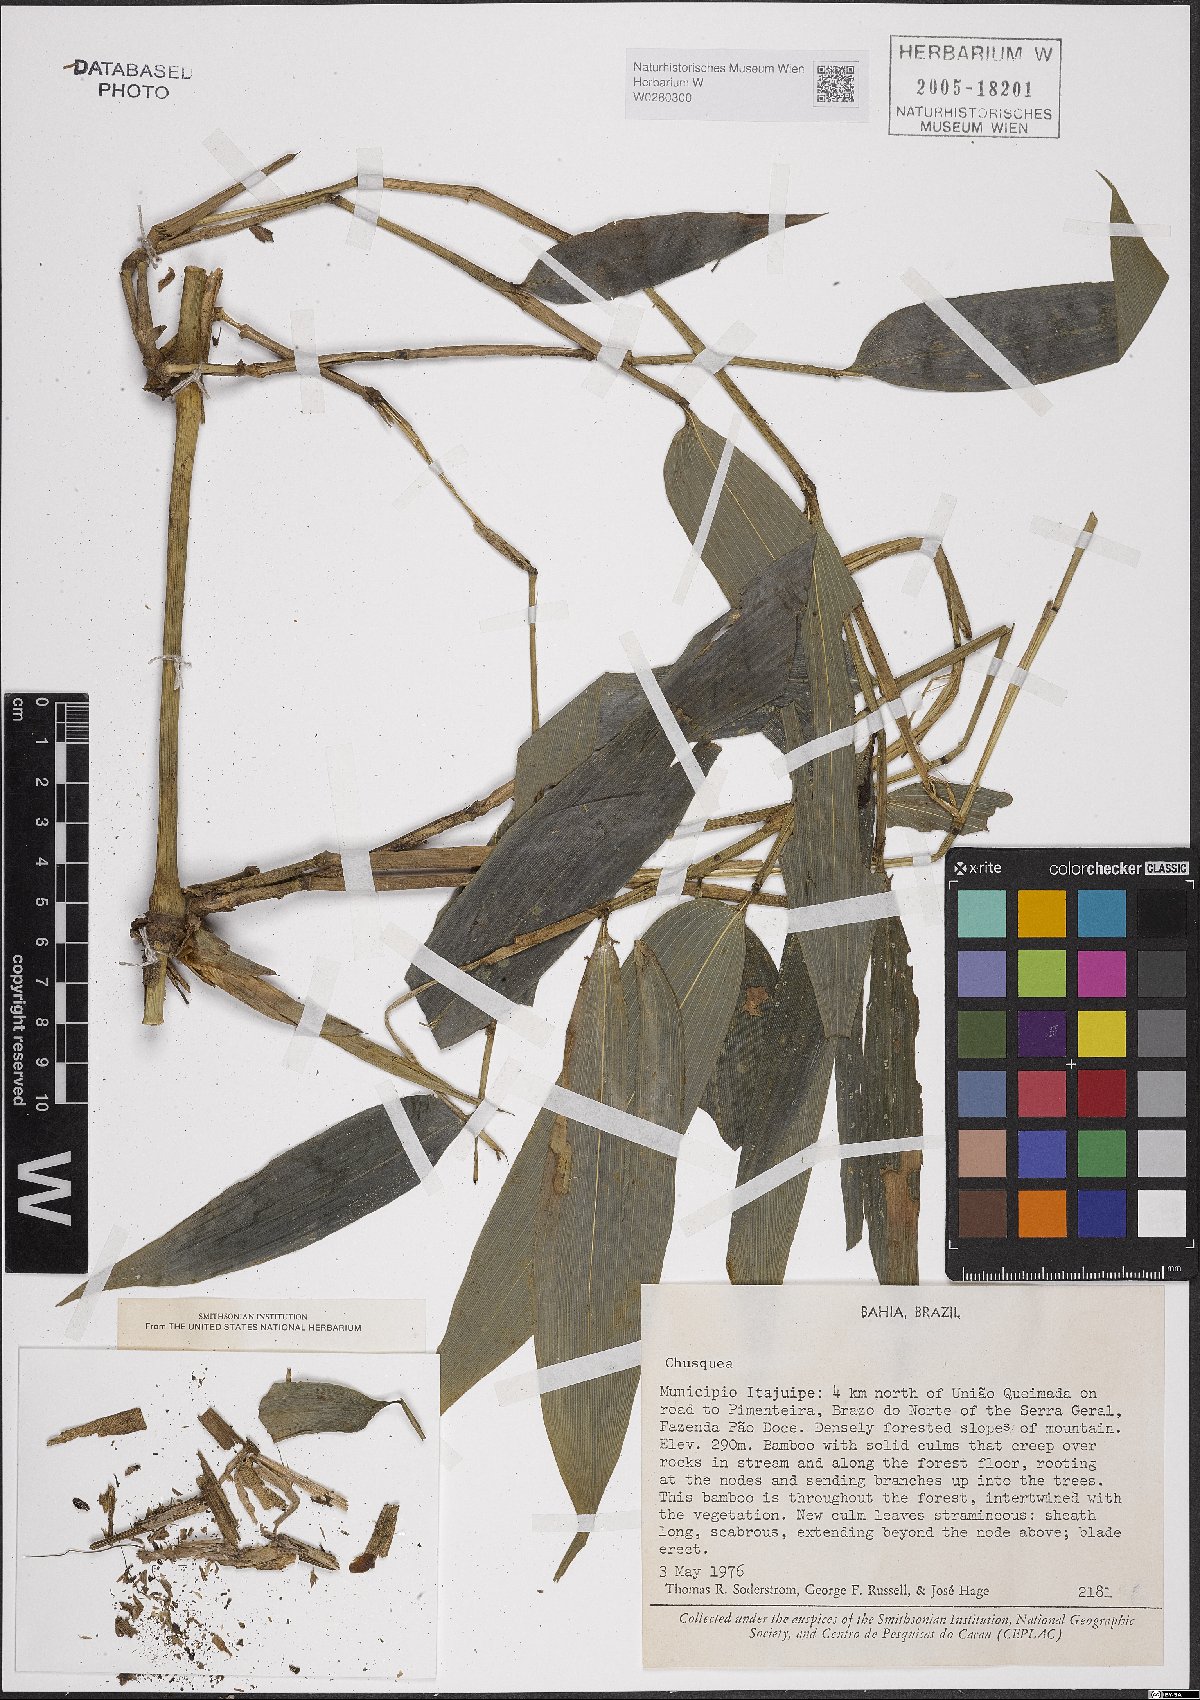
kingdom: Plantae
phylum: Tracheophyta
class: Liliopsida
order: Poales
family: Poaceae
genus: Chusquea
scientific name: Chusquea
